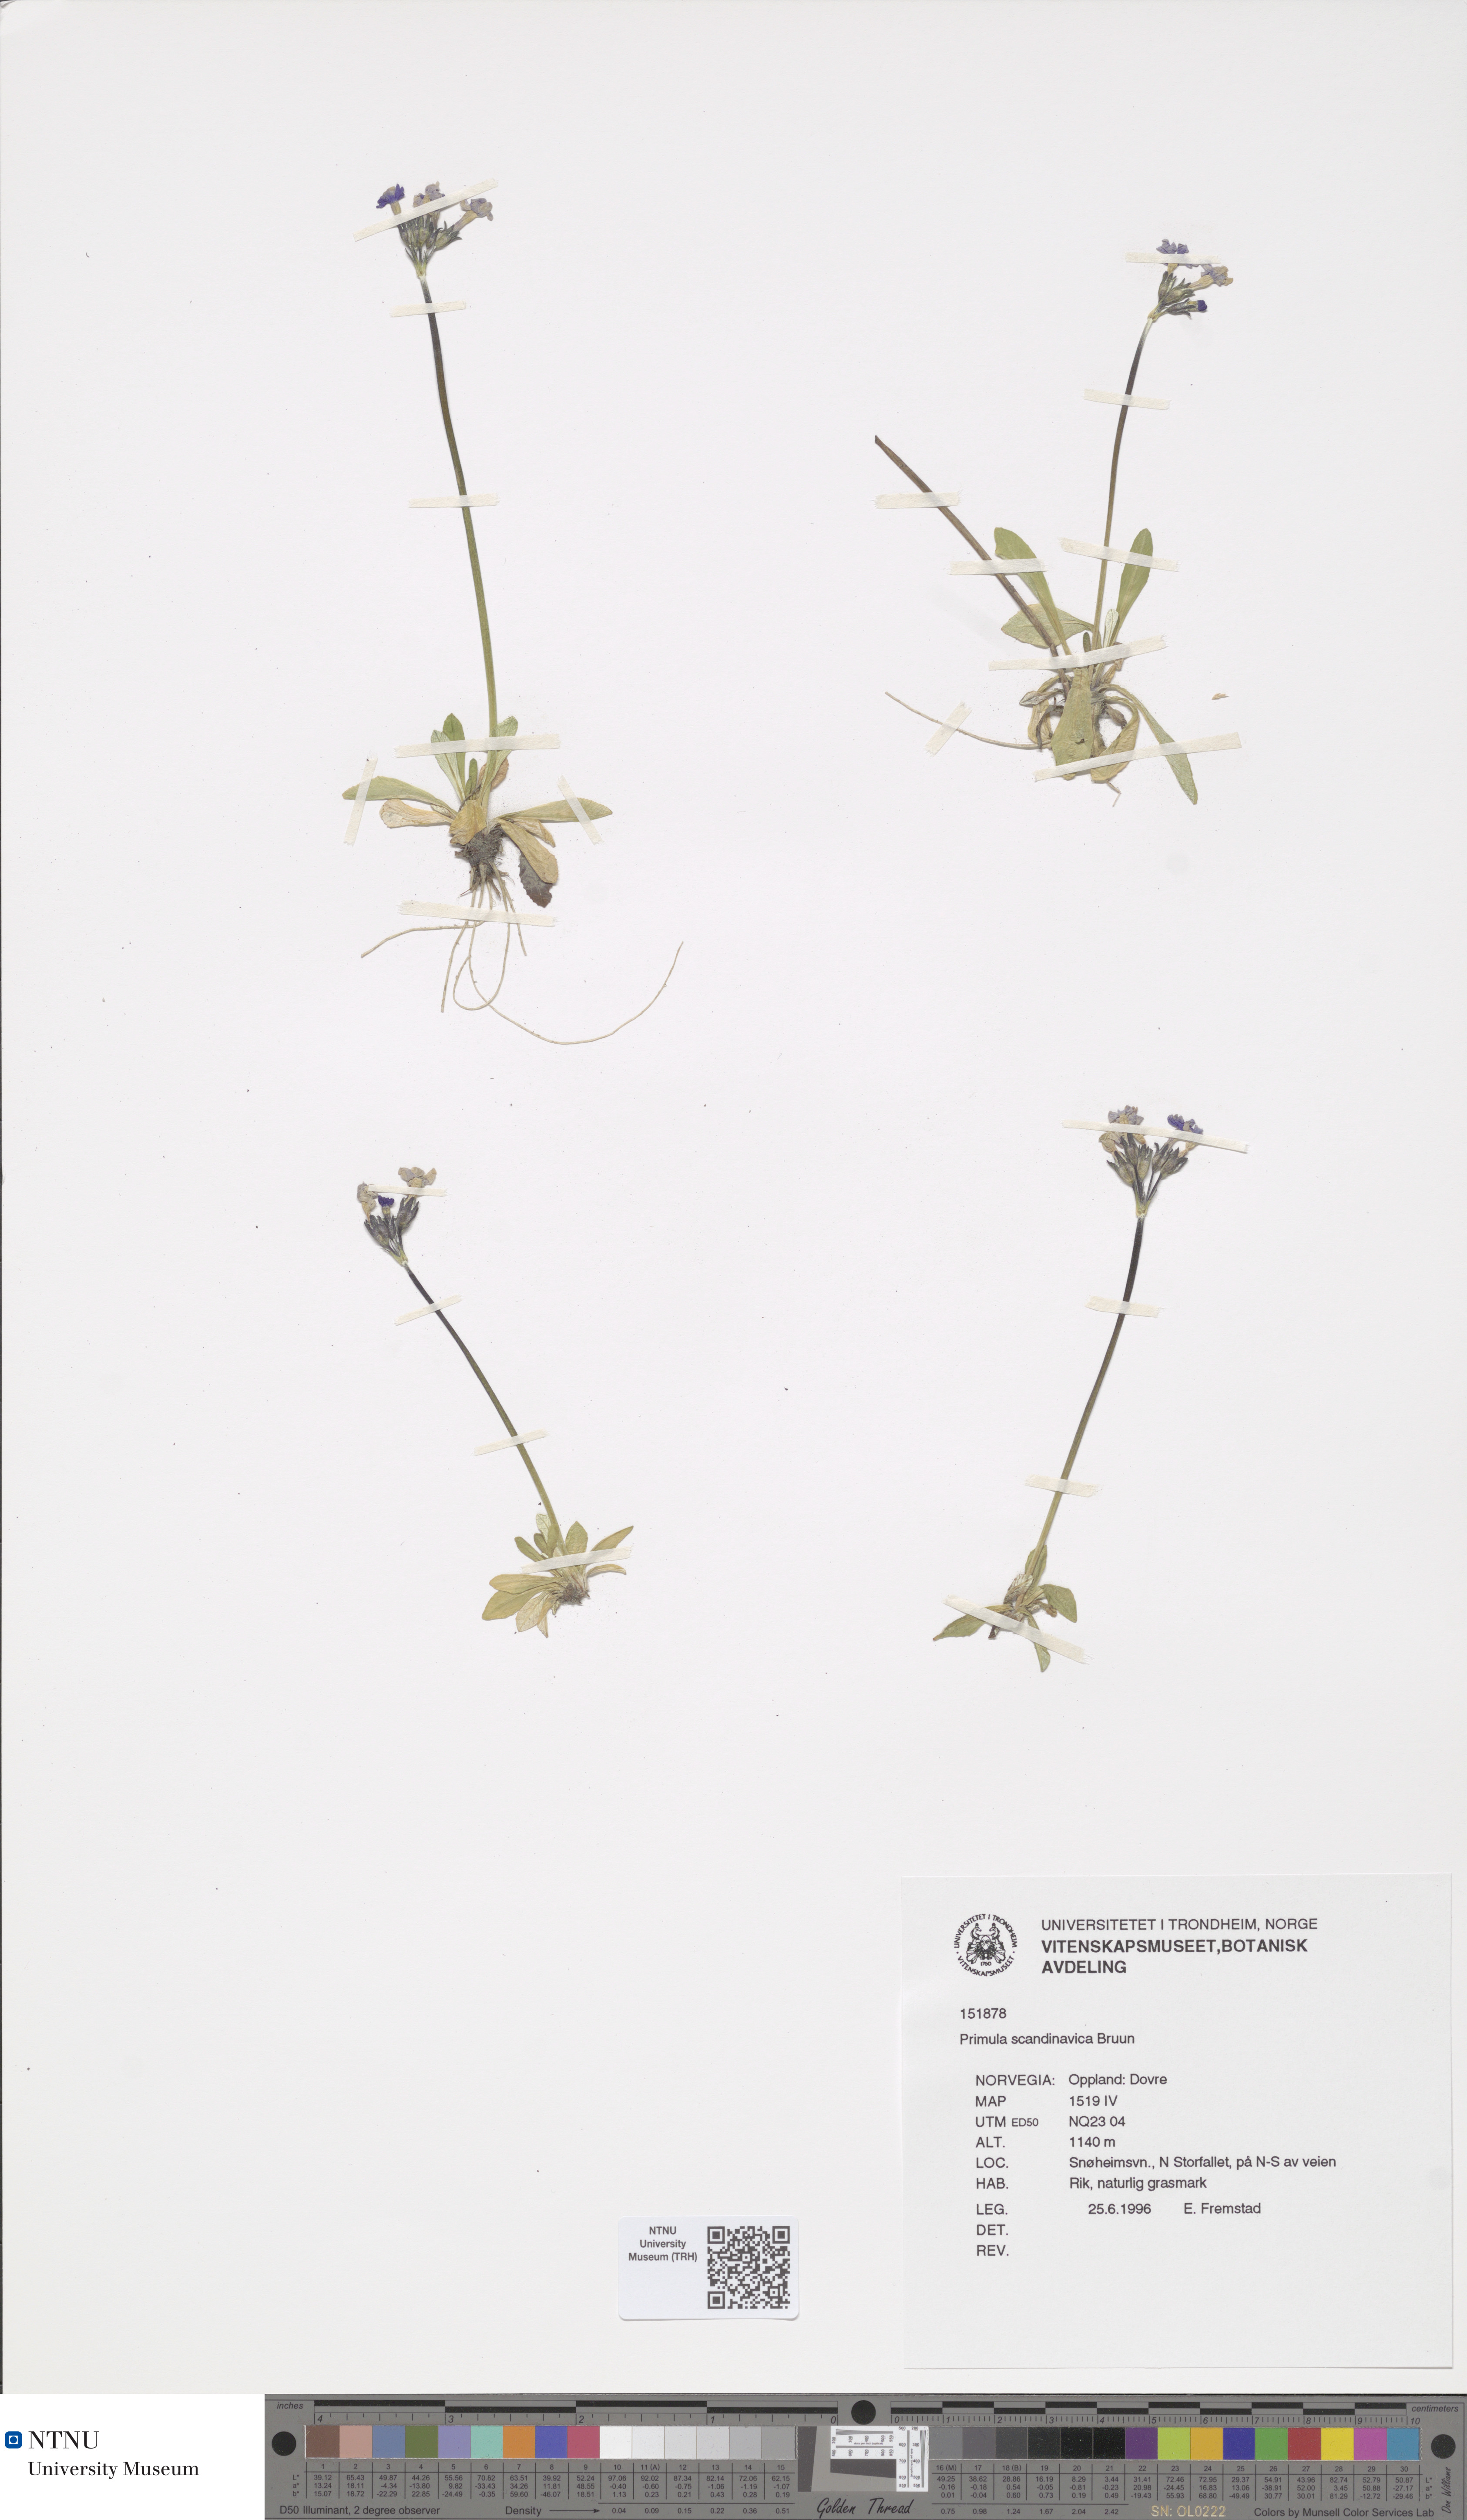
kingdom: Plantae
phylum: Tracheophyta
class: Magnoliopsida
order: Ericales
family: Primulaceae
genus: Primula
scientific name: Primula scandinavica
